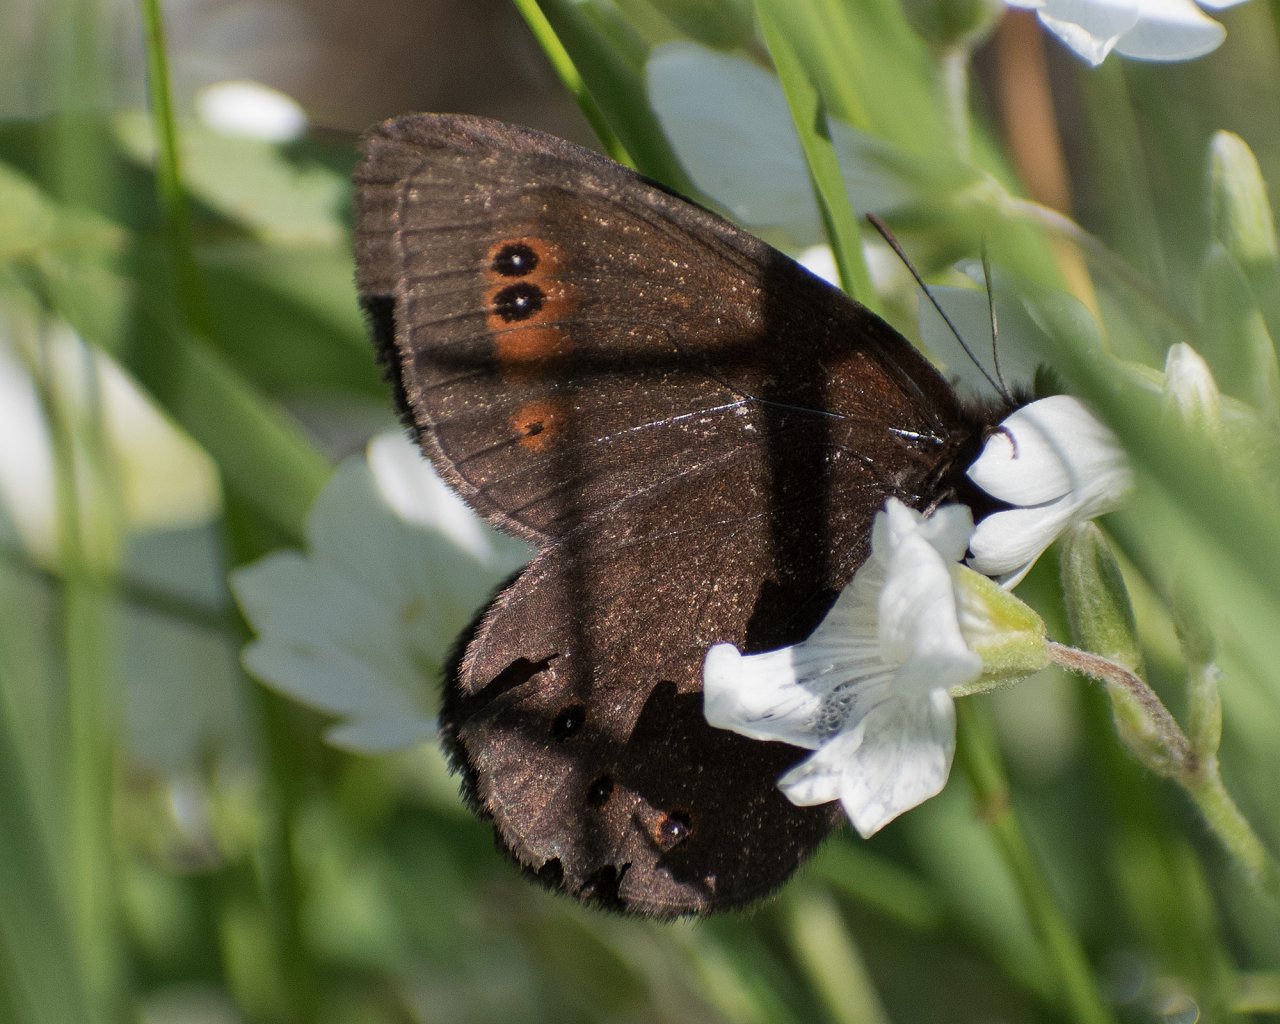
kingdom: Animalia
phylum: Arthropoda
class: Insecta
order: Lepidoptera
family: Nymphalidae
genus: Erebia
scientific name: Erebia epipsodea
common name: Common Alpine
